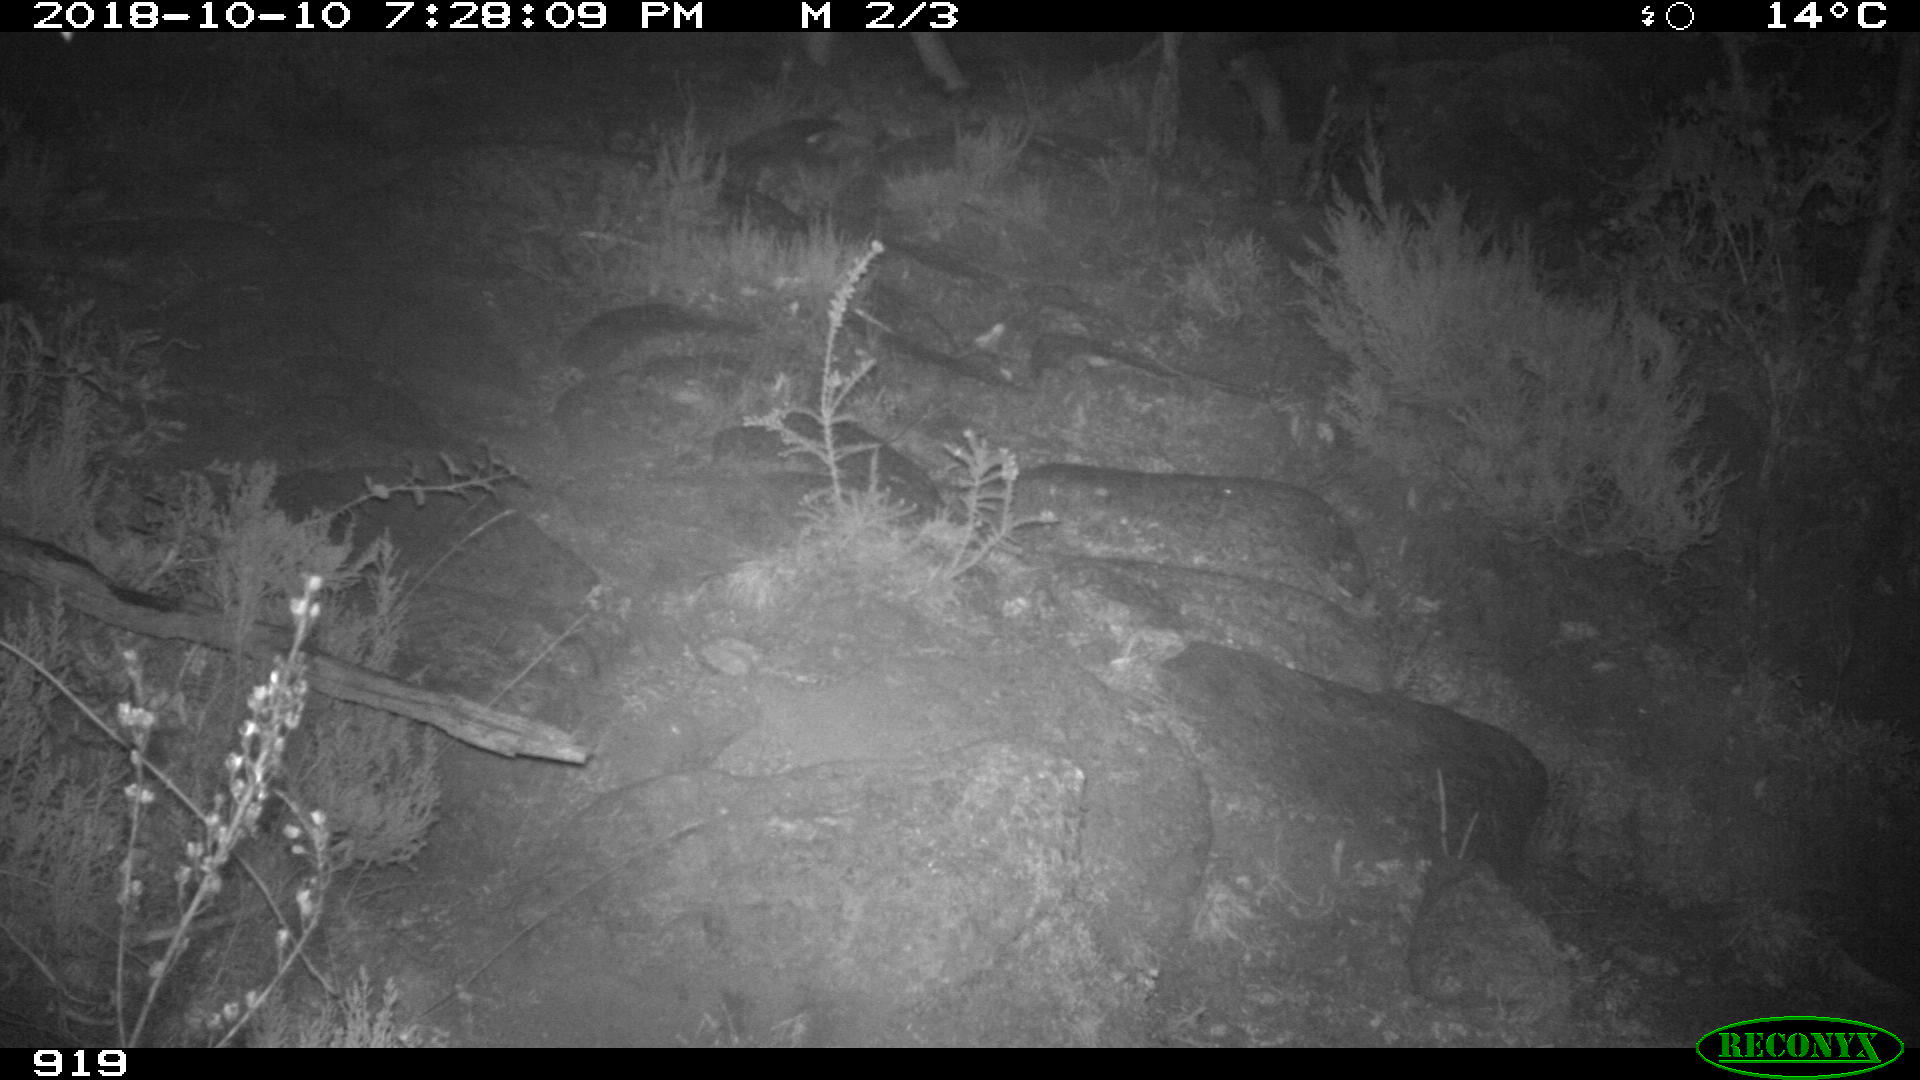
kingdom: Animalia
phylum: Chordata
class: Mammalia
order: Artiodactyla
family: Bovidae
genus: Bos
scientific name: Bos taurus
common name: Domesticated cattle
